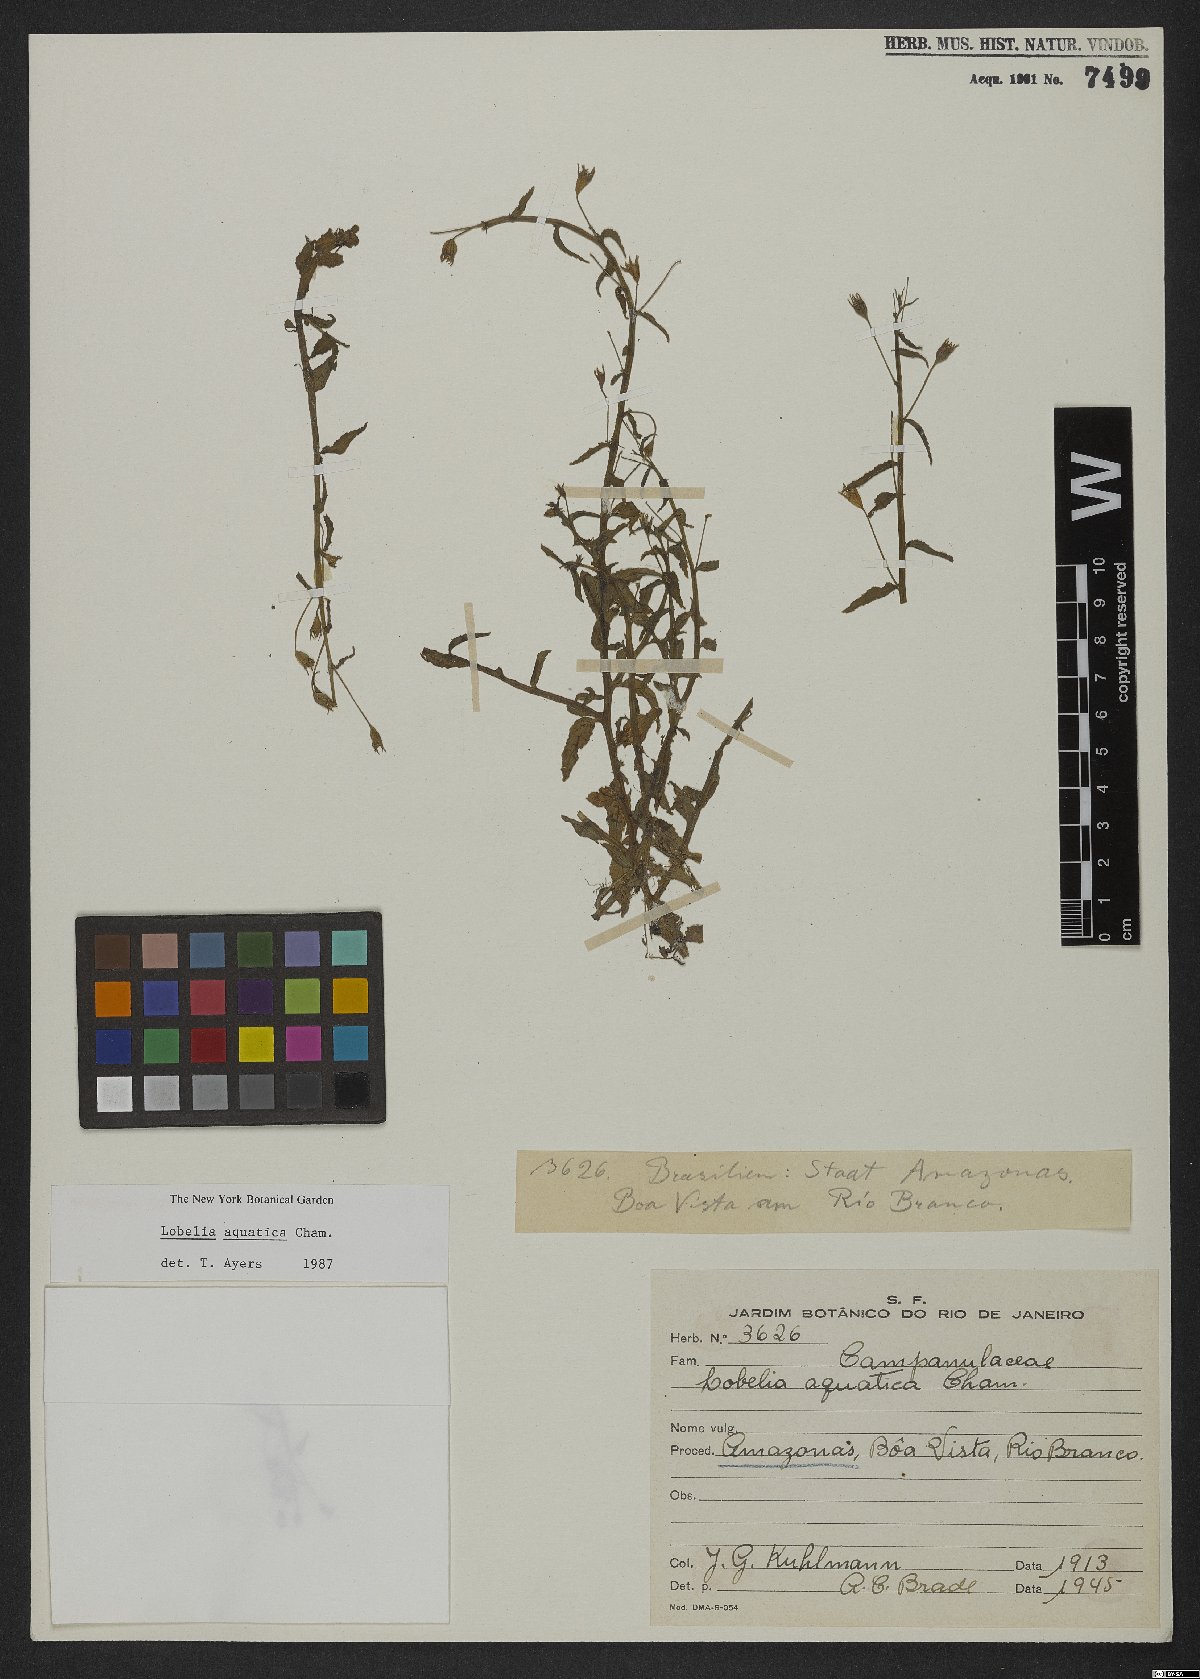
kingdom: Plantae
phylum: Tracheophyta
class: Magnoliopsida
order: Asterales
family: Campanulaceae
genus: Lobelia
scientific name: Lobelia aquatica
